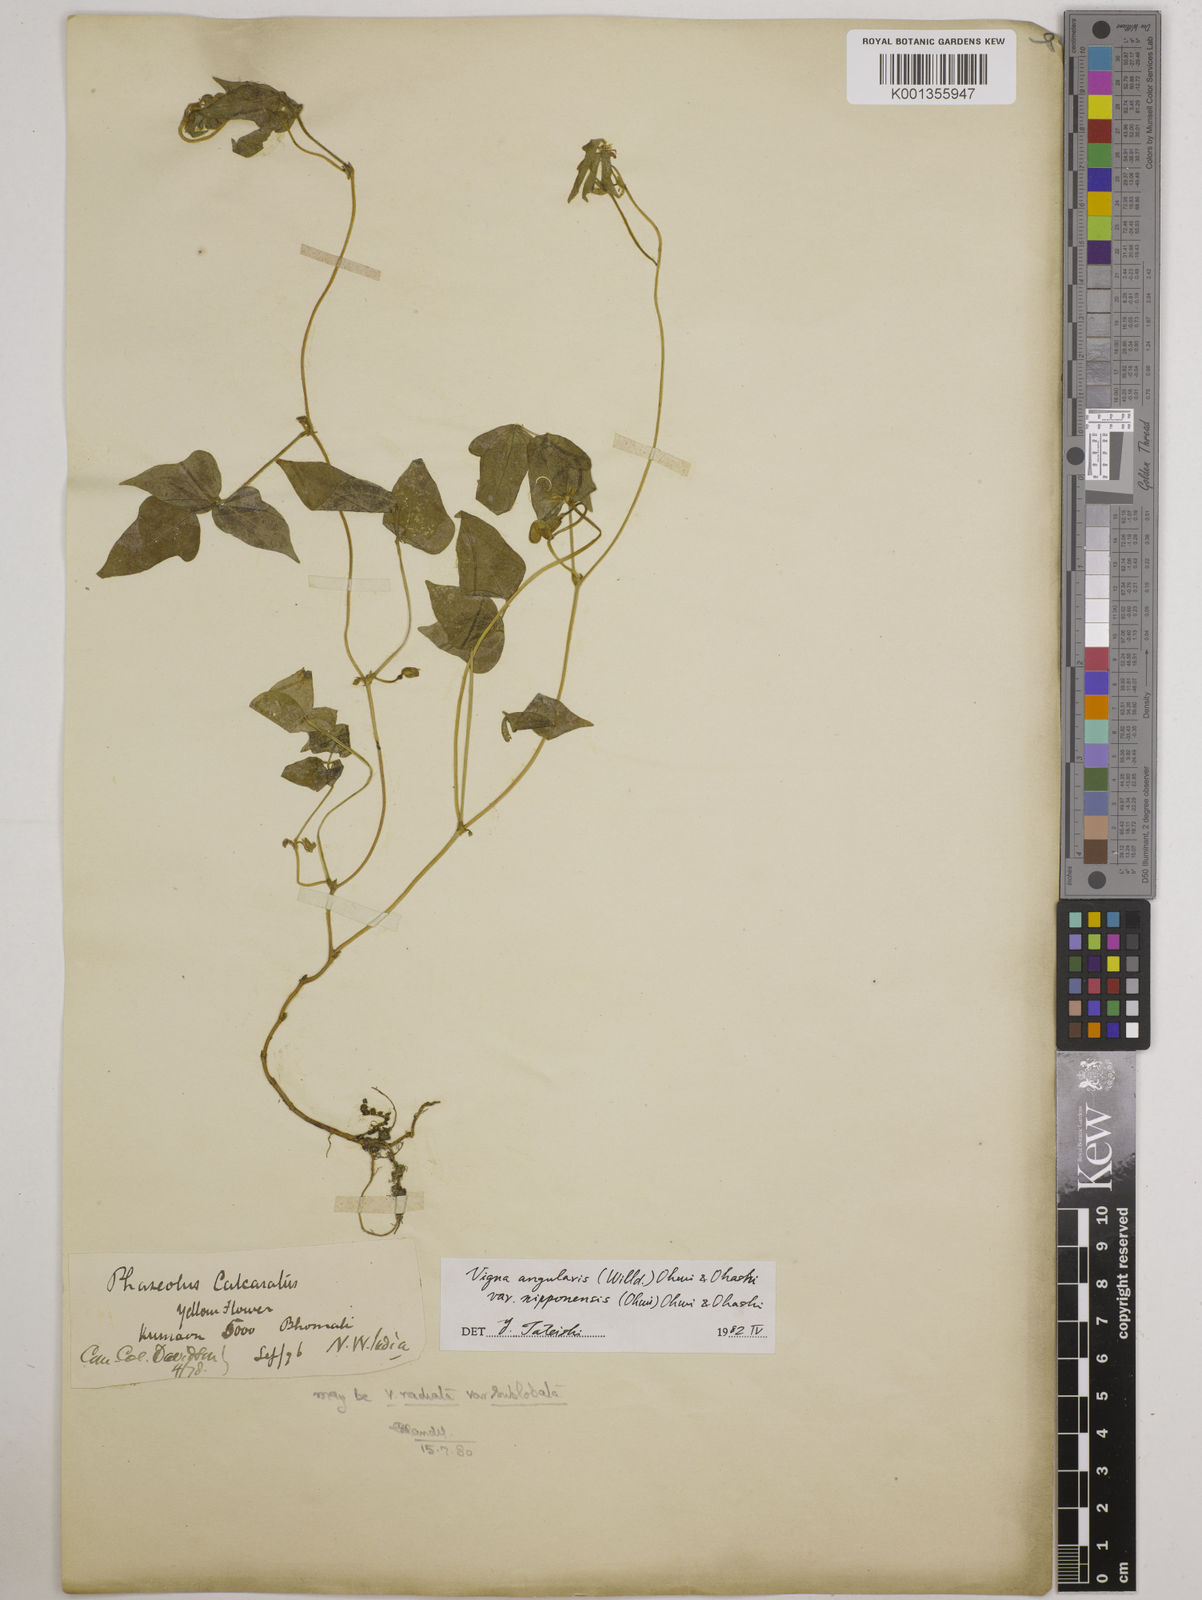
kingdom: Plantae
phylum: Tracheophyta
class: Magnoliopsida
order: Fabales
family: Fabaceae
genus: Vigna
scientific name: Vigna
